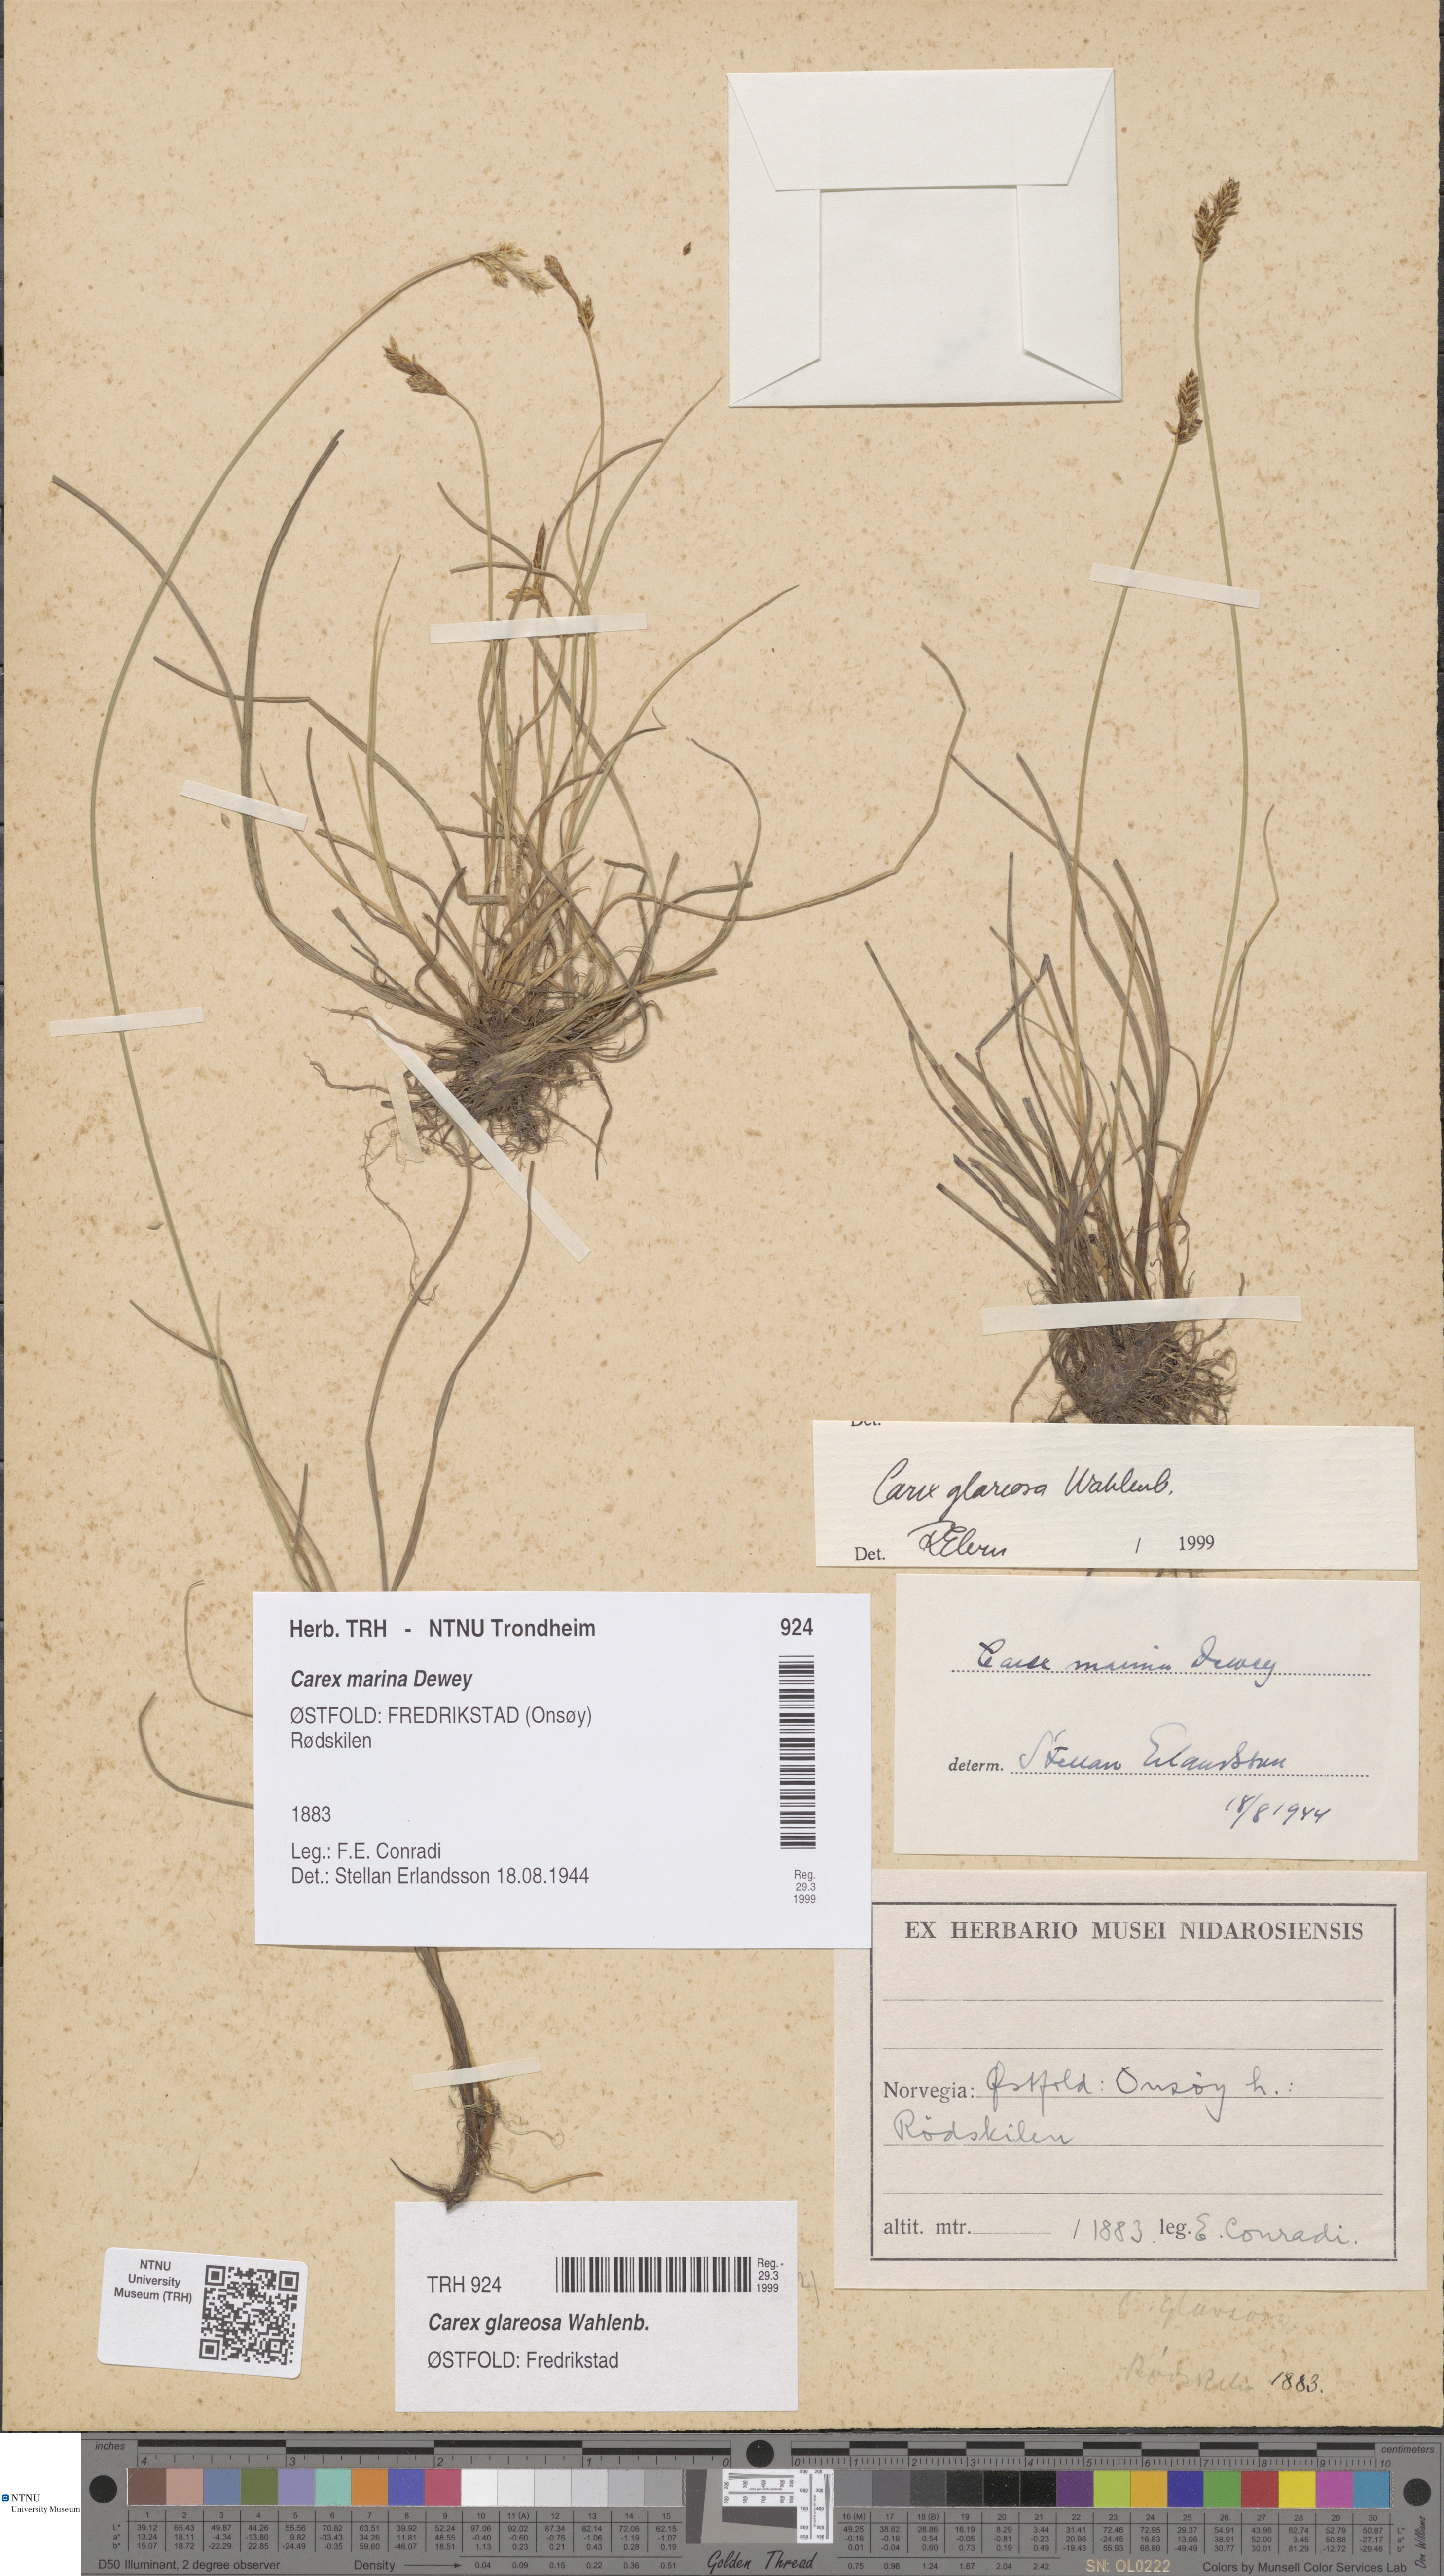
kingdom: Plantae
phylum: Tracheophyta
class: Liliopsida
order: Poales
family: Cyperaceae
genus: Carex
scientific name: Carex glareosa
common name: Clustered sedge
